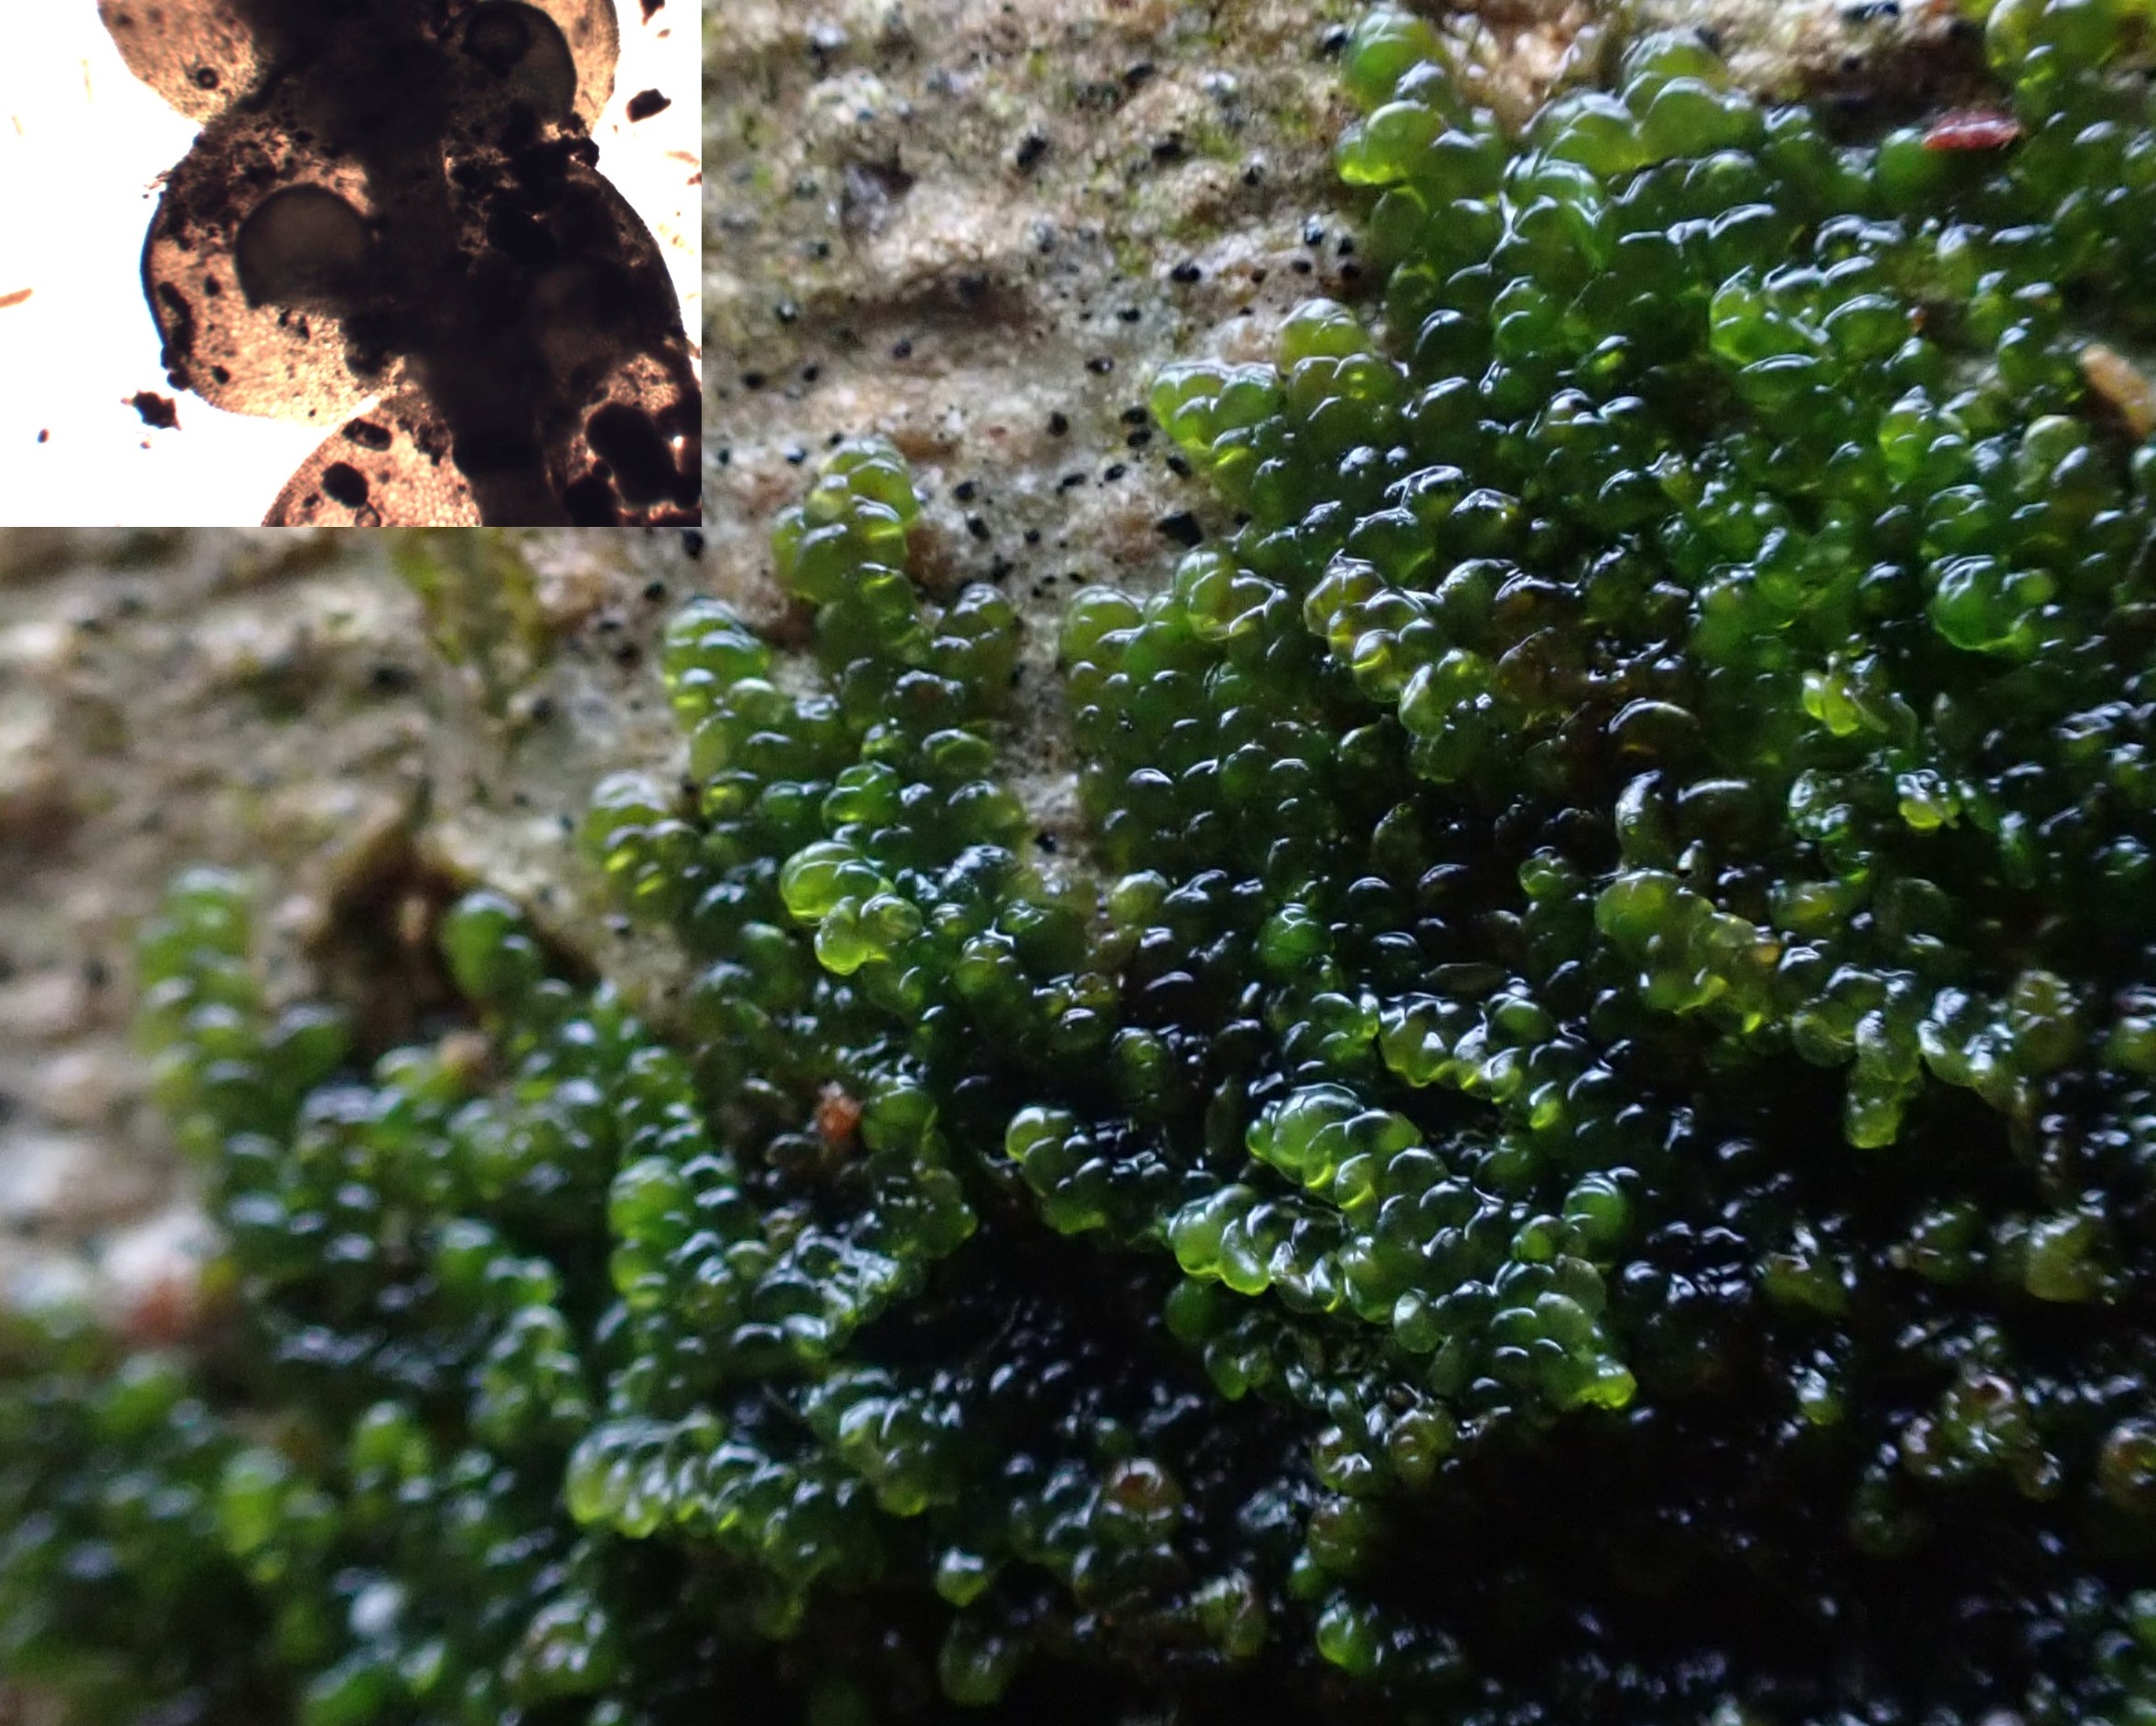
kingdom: Plantae
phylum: Marchantiophyta
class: Jungermanniopsida
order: Porellales
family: Frullaniaceae
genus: Frullania
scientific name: Frullania dilatata
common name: Mat bronzemos
